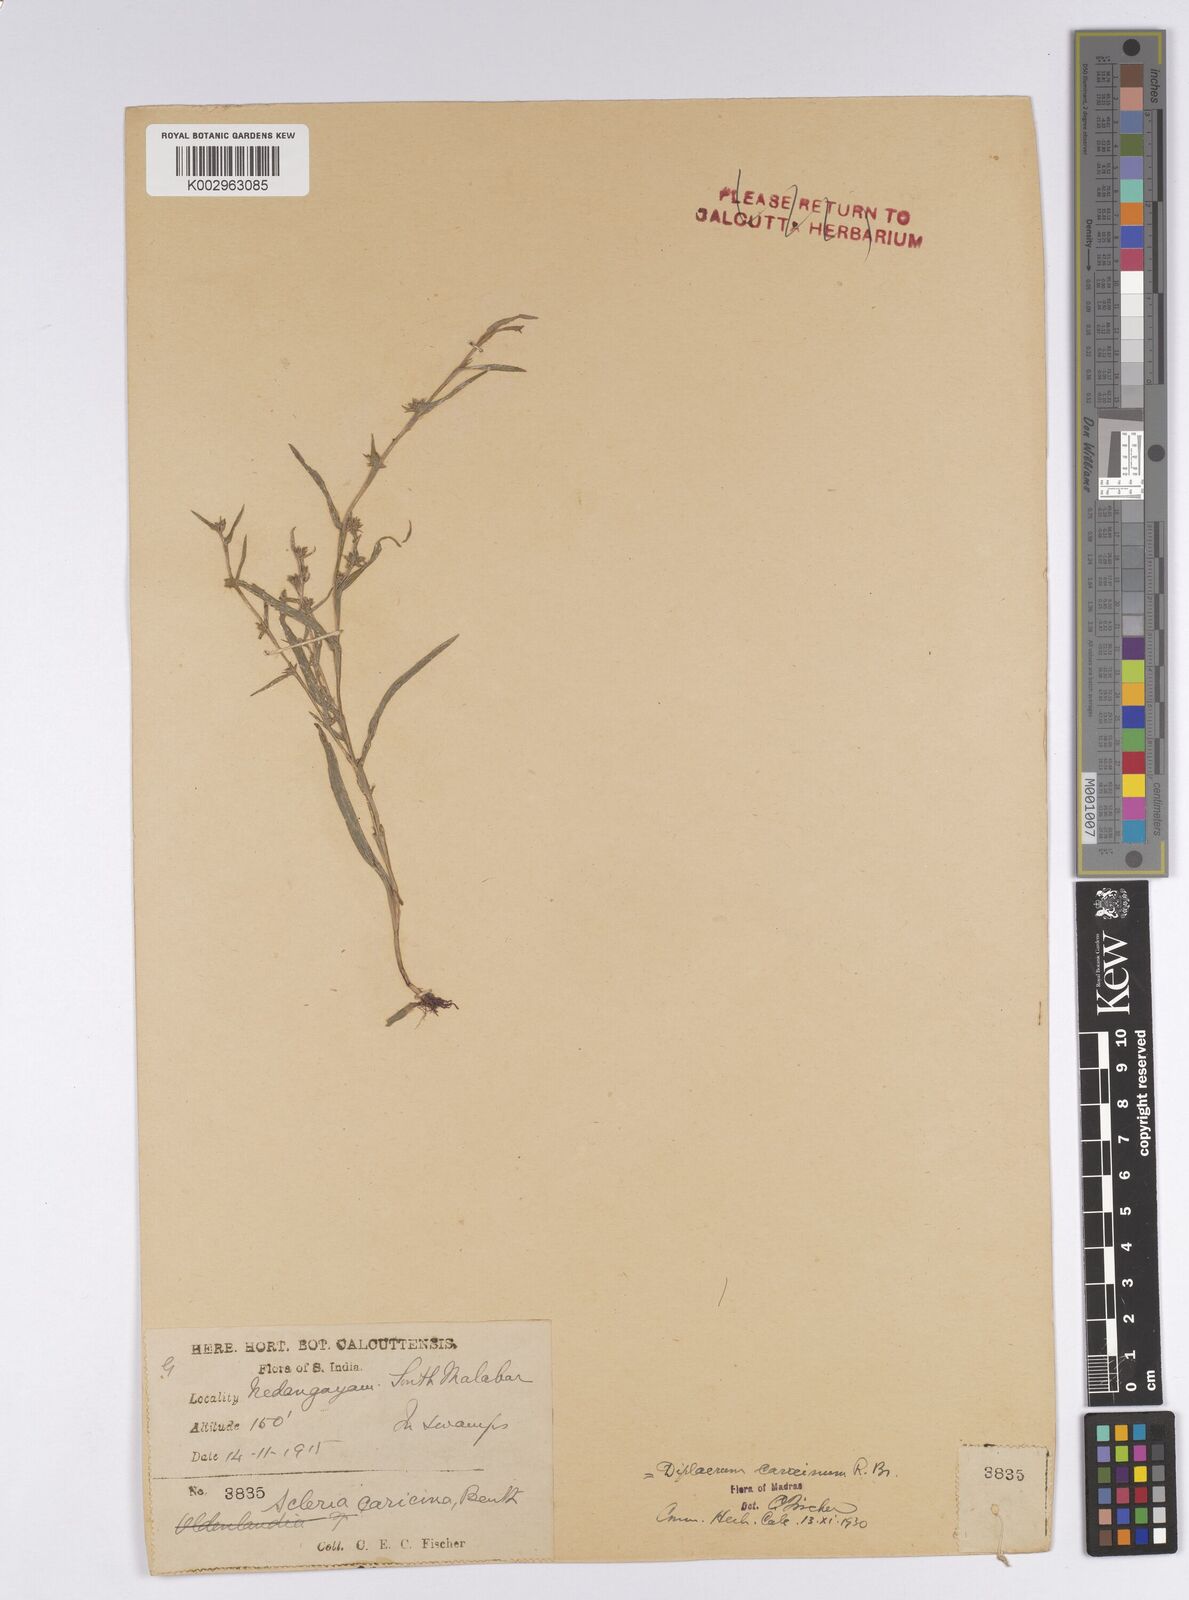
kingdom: Plantae
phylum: Tracheophyta
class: Liliopsida
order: Poales
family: Cyperaceae
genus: Diplacrum
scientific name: Diplacrum caricinum
